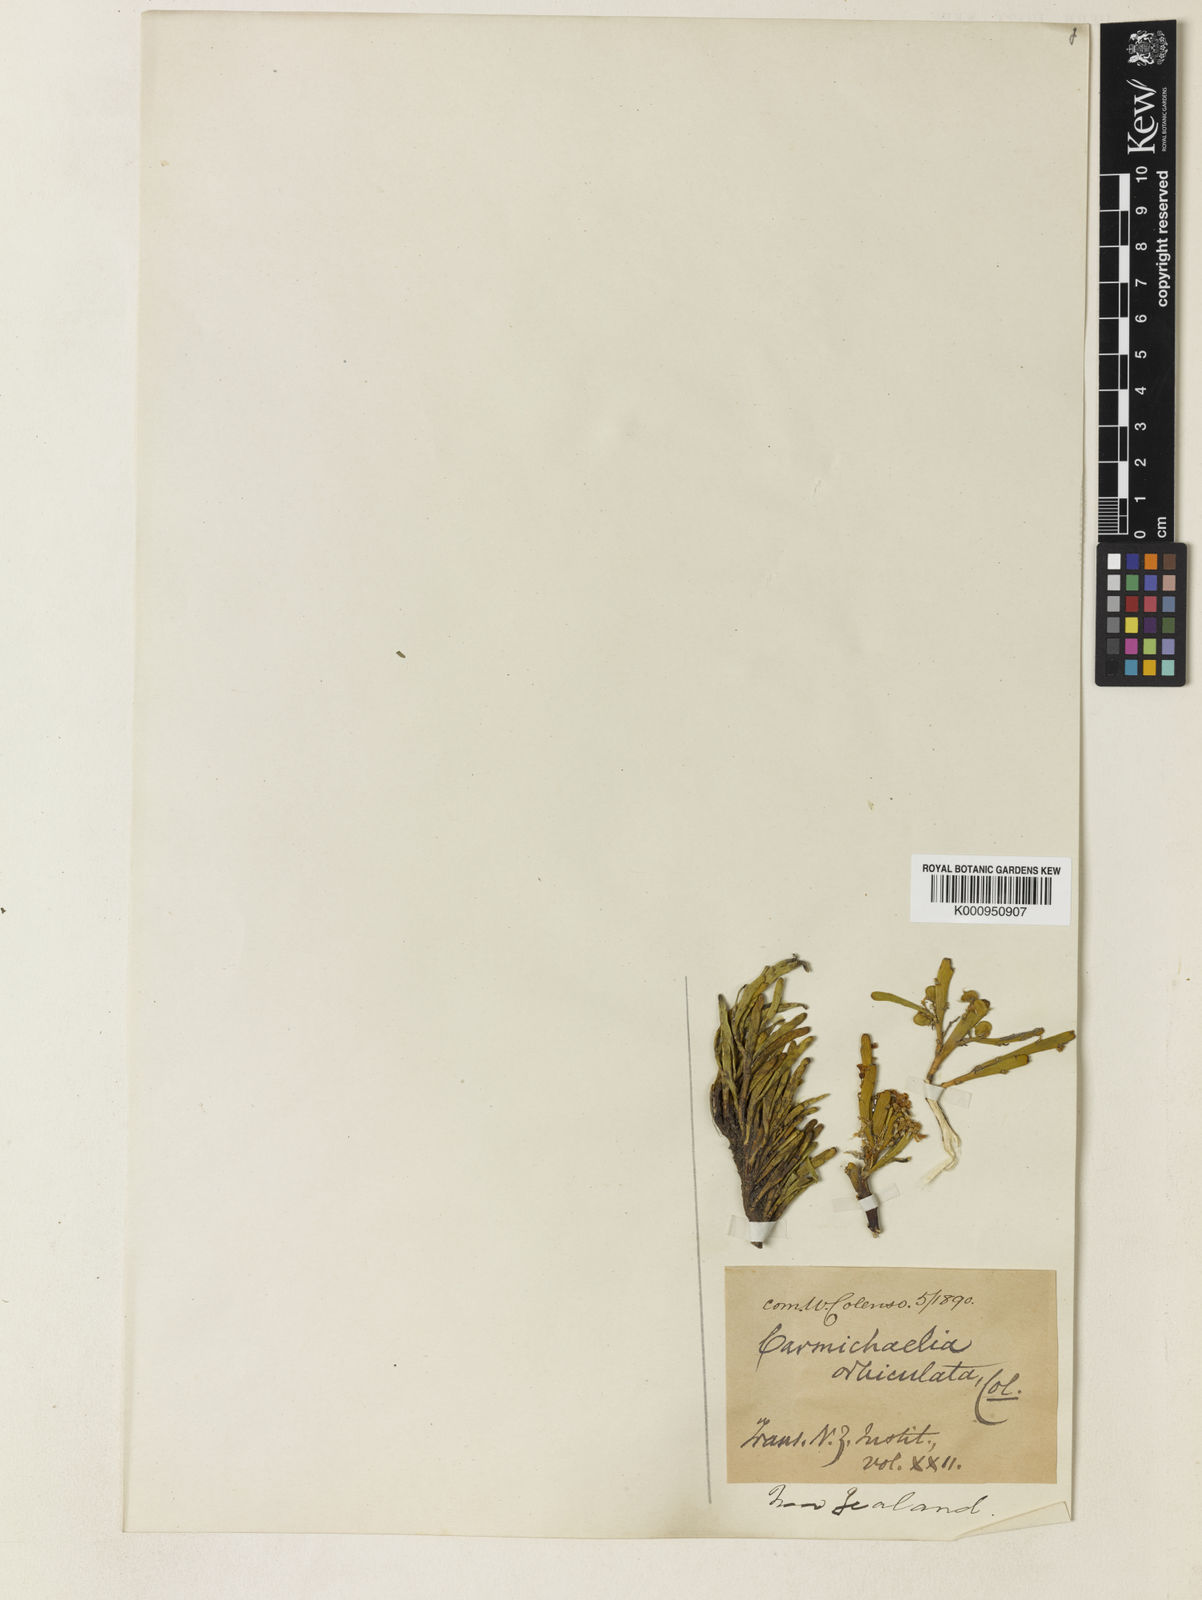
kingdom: Plantae
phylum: Tracheophyta
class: Magnoliopsida
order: Fabales
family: Fabaceae
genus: Carmichaelia
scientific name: Carmichaelia nana
